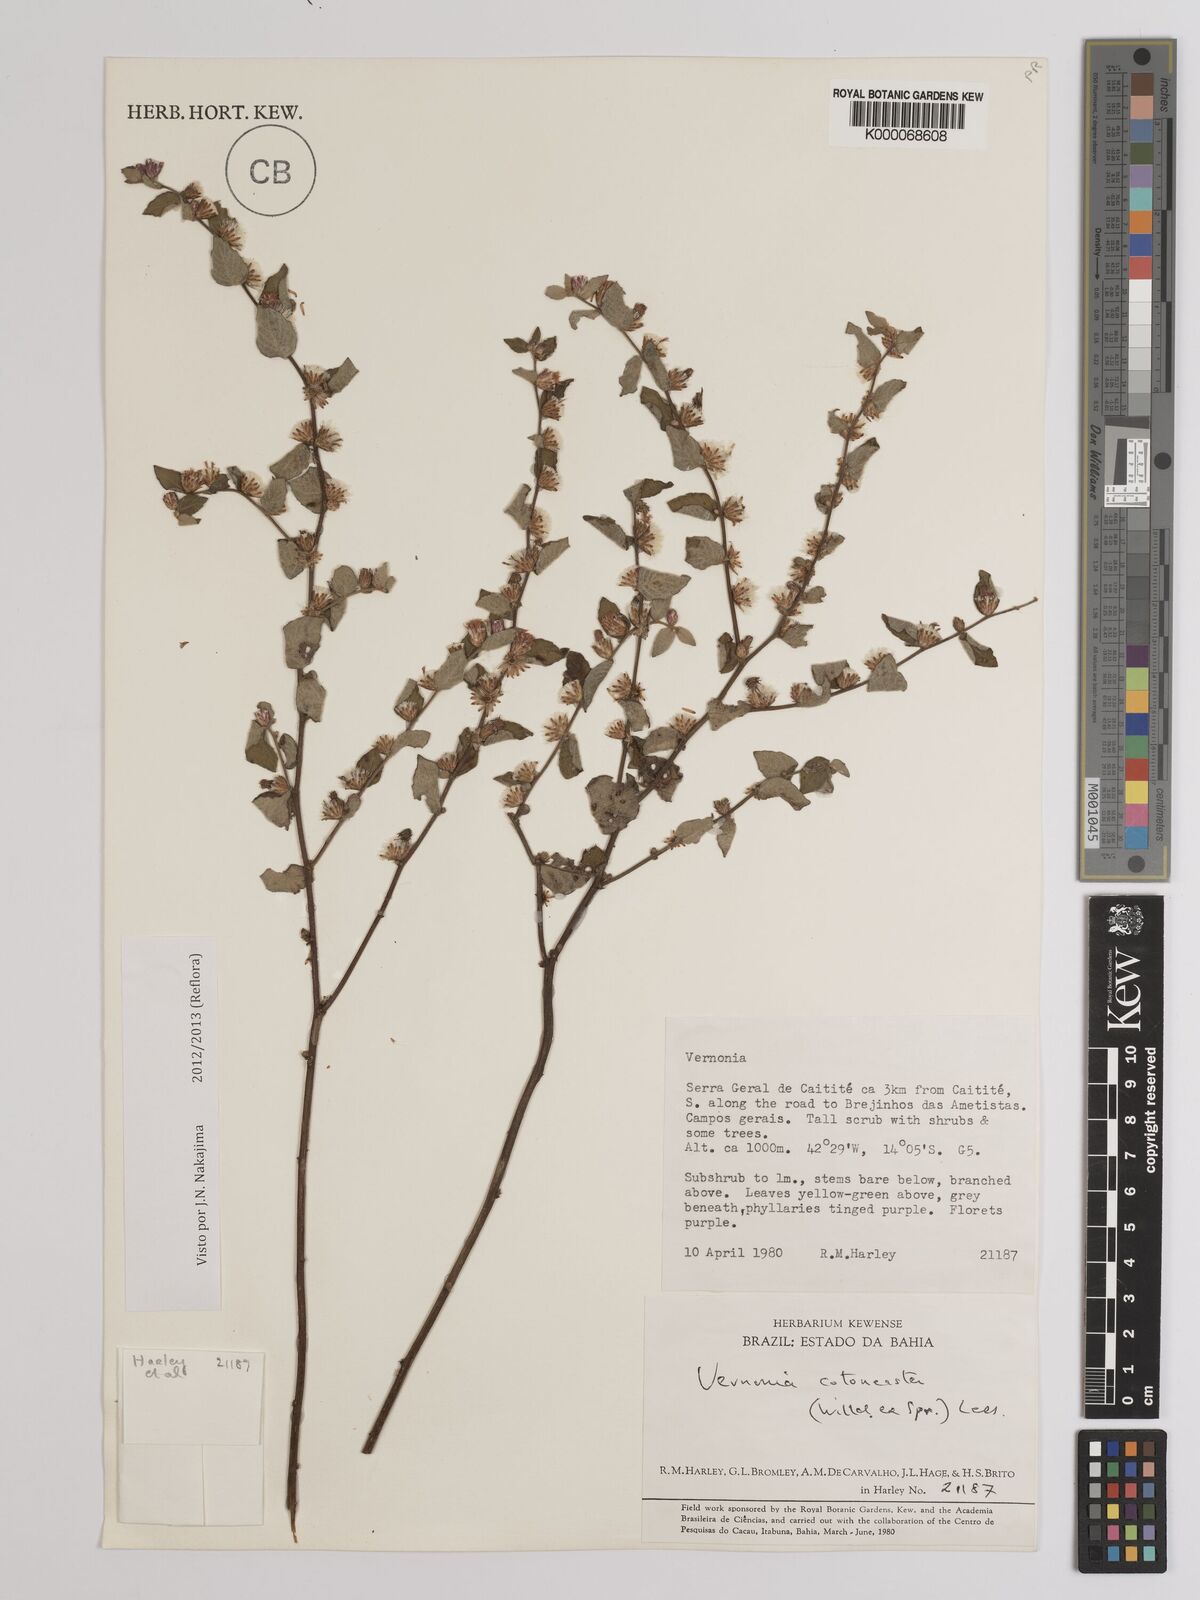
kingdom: Plantae
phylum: Tracheophyta
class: Magnoliopsida
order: Asterales
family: Asteraceae
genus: Lepidaploa
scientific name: Lepidaploa cotoneaster
